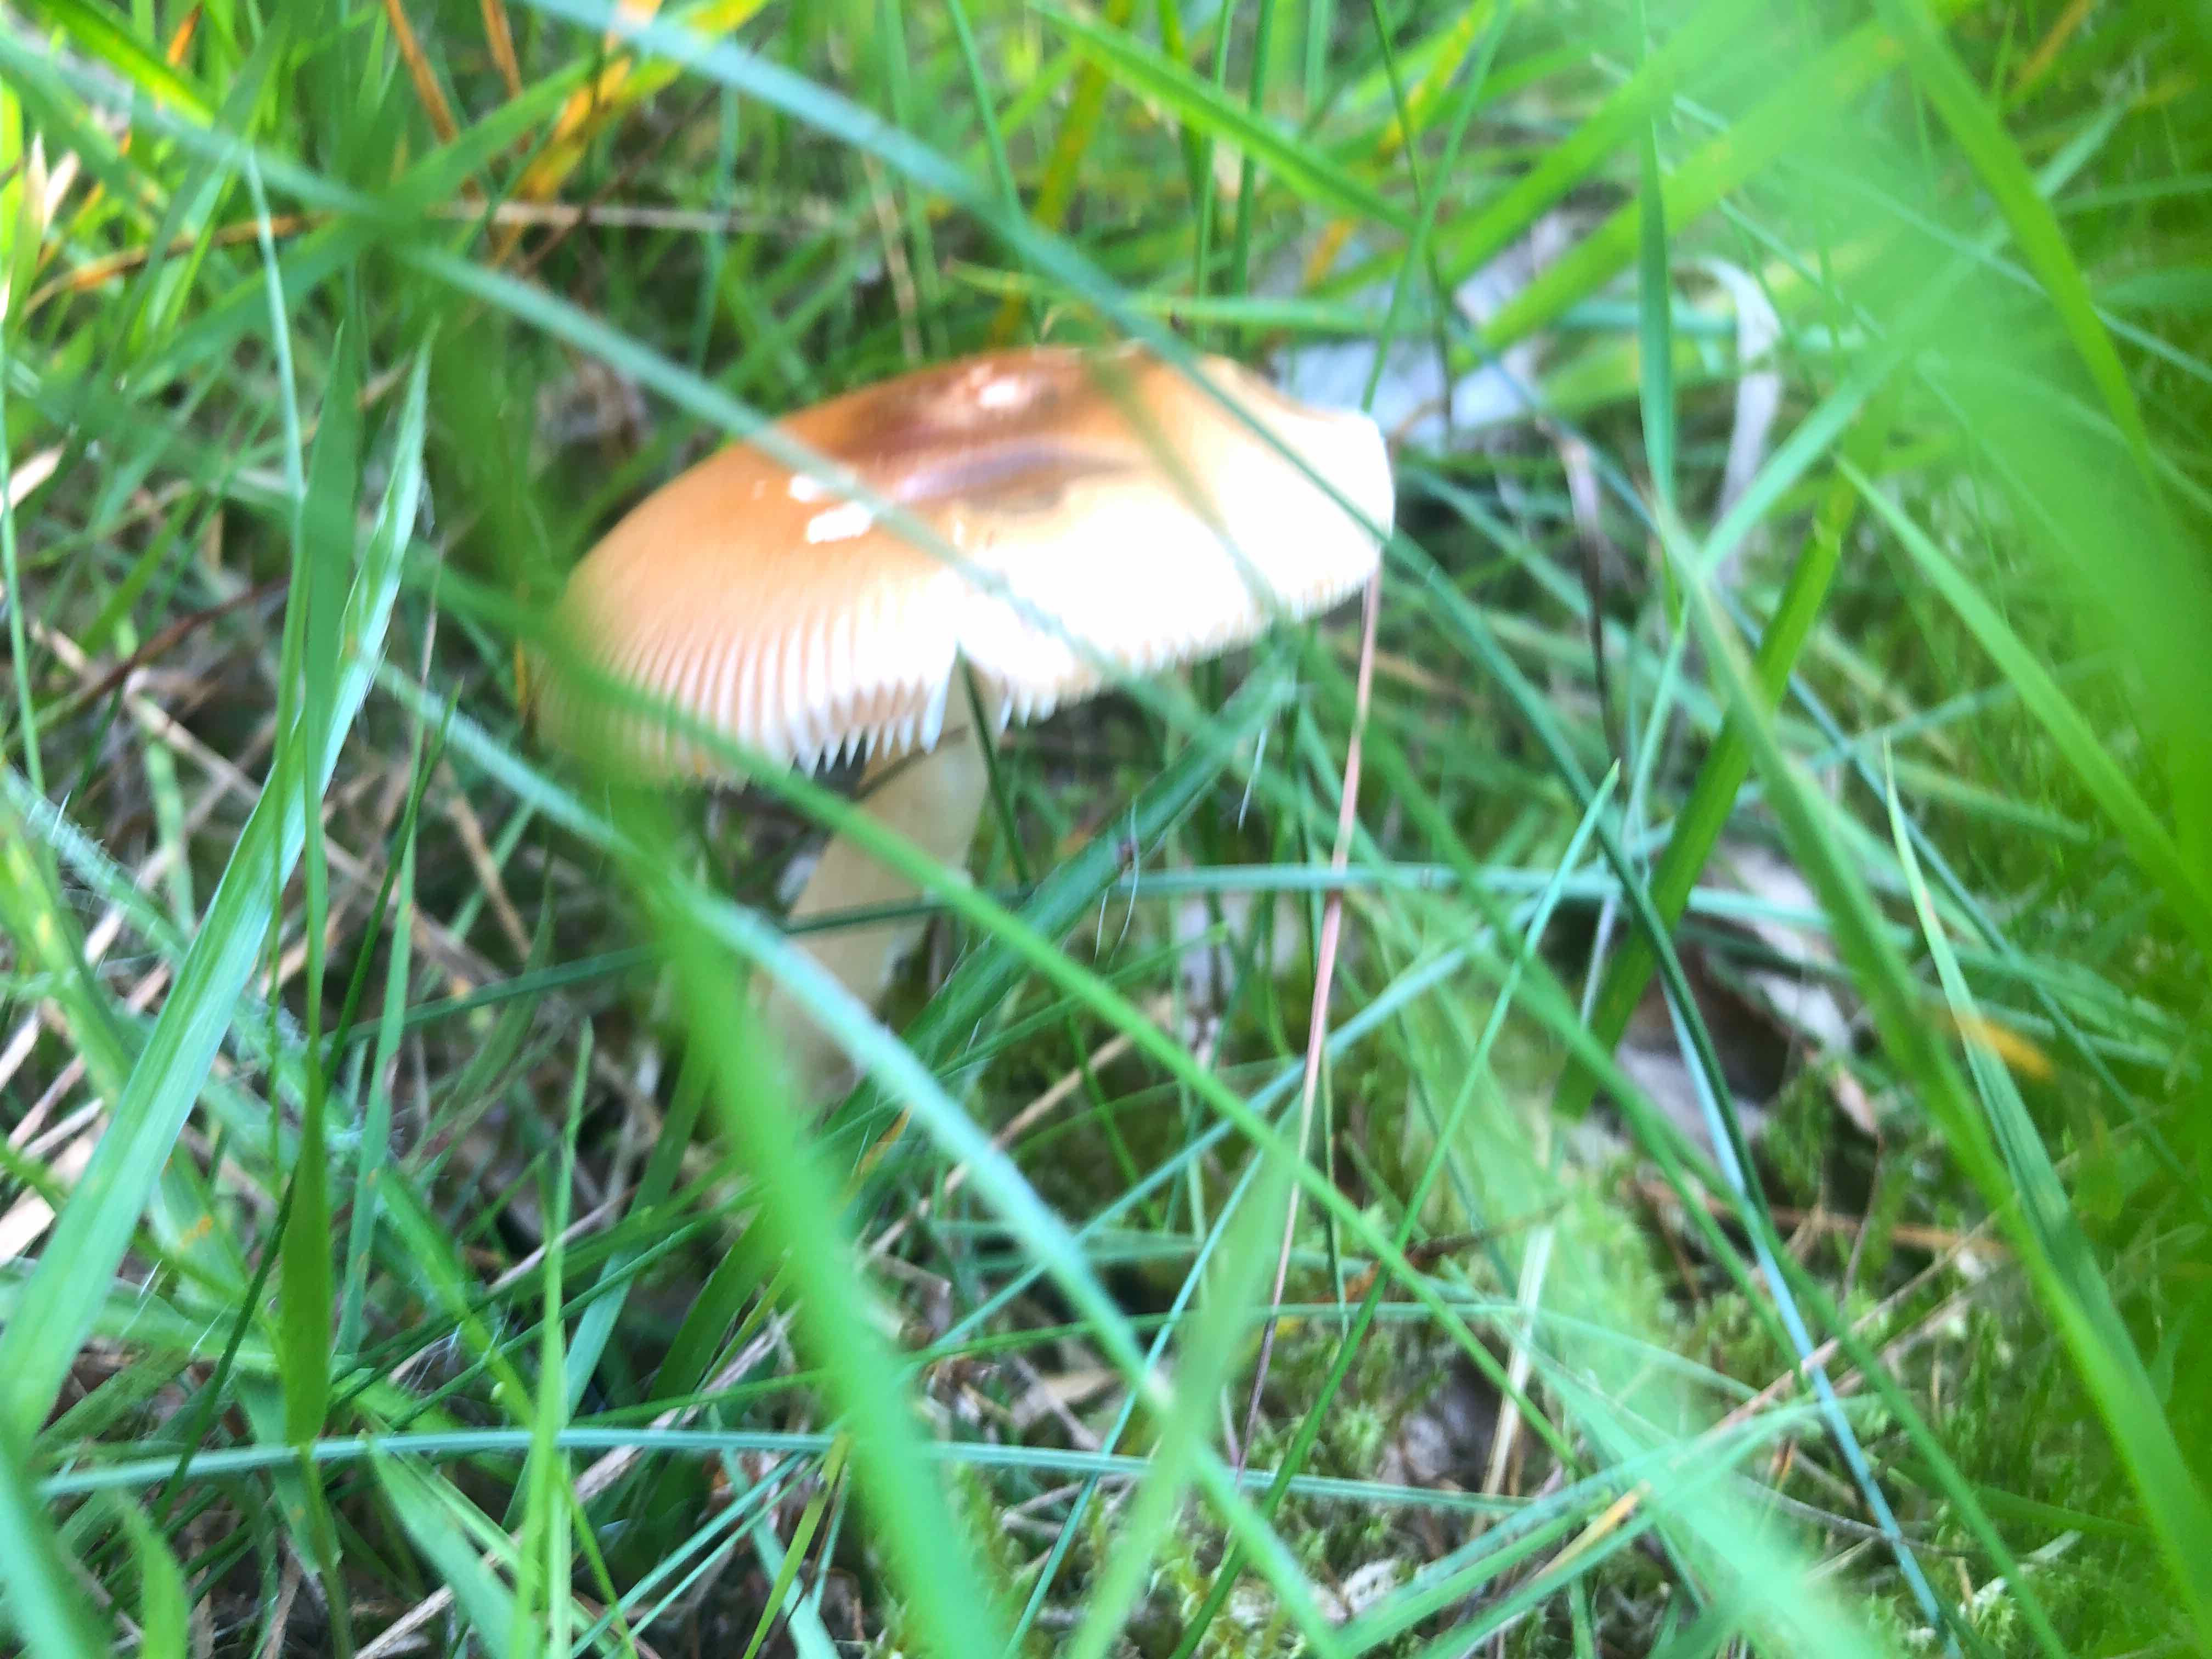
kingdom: Fungi
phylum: Basidiomycota
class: Agaricomycetes
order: Agaricales
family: Amanitaceae
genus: Amanita
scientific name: Amanita fulva
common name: brun kam-fluesvamp
